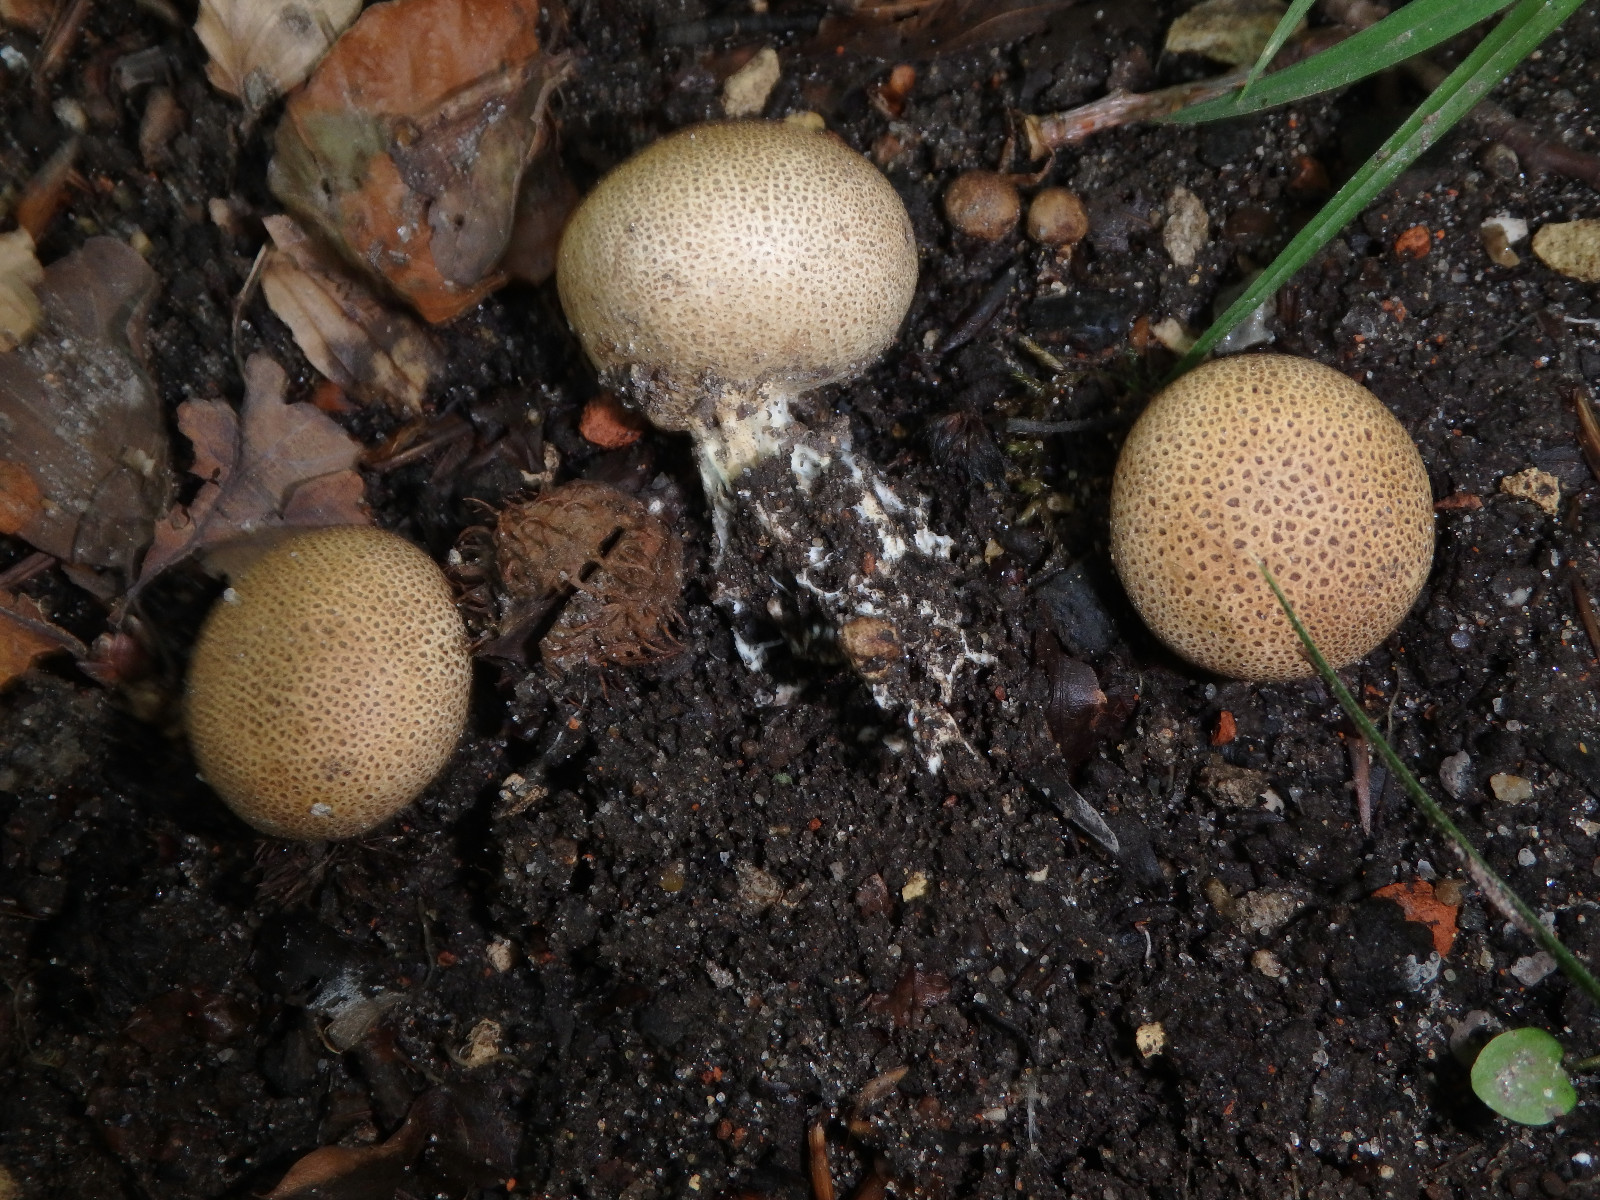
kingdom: Fungi
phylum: Basidiomycota
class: Agaricomycetes
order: Boletales
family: Sclerodermataceae
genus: Scleroderma
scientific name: Scleroderma areolatum
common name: plettet bruskbold
